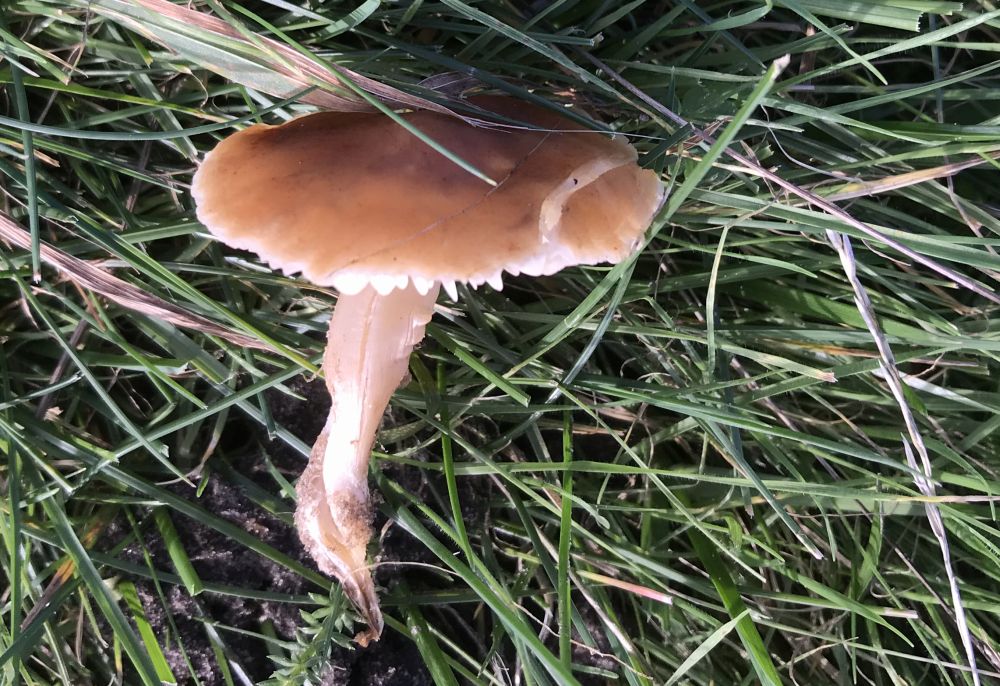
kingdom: Fungi
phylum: Basidiomycota
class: Agaricomycetes
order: Agaricales
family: Hygrophoraceae
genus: Cuphophyllus
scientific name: Cuphophyllus pratensis
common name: eng-vokshat
